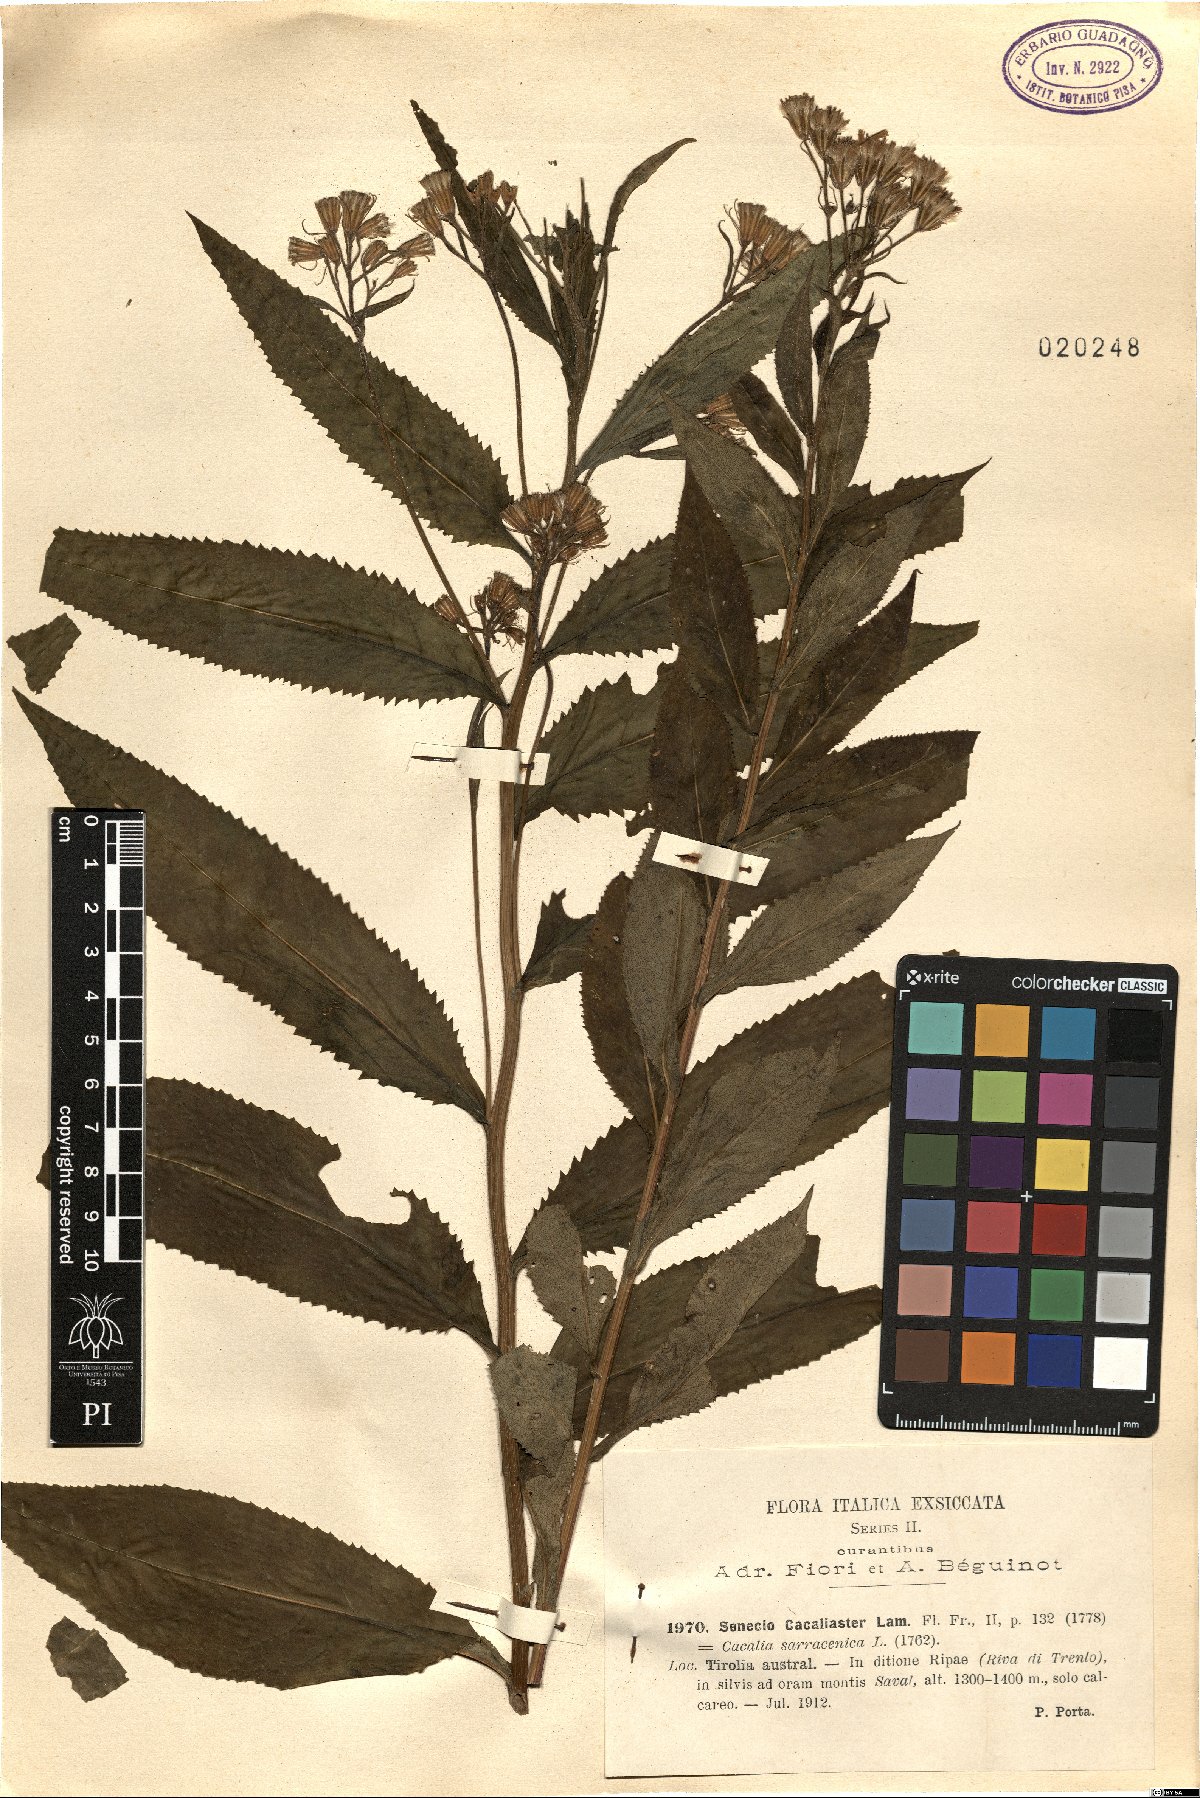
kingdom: Plantae
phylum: Tracheophyta
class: Magnoliopsida
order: Asterales
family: Asteraceae
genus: Senecio
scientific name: Senecio cacaliaster
